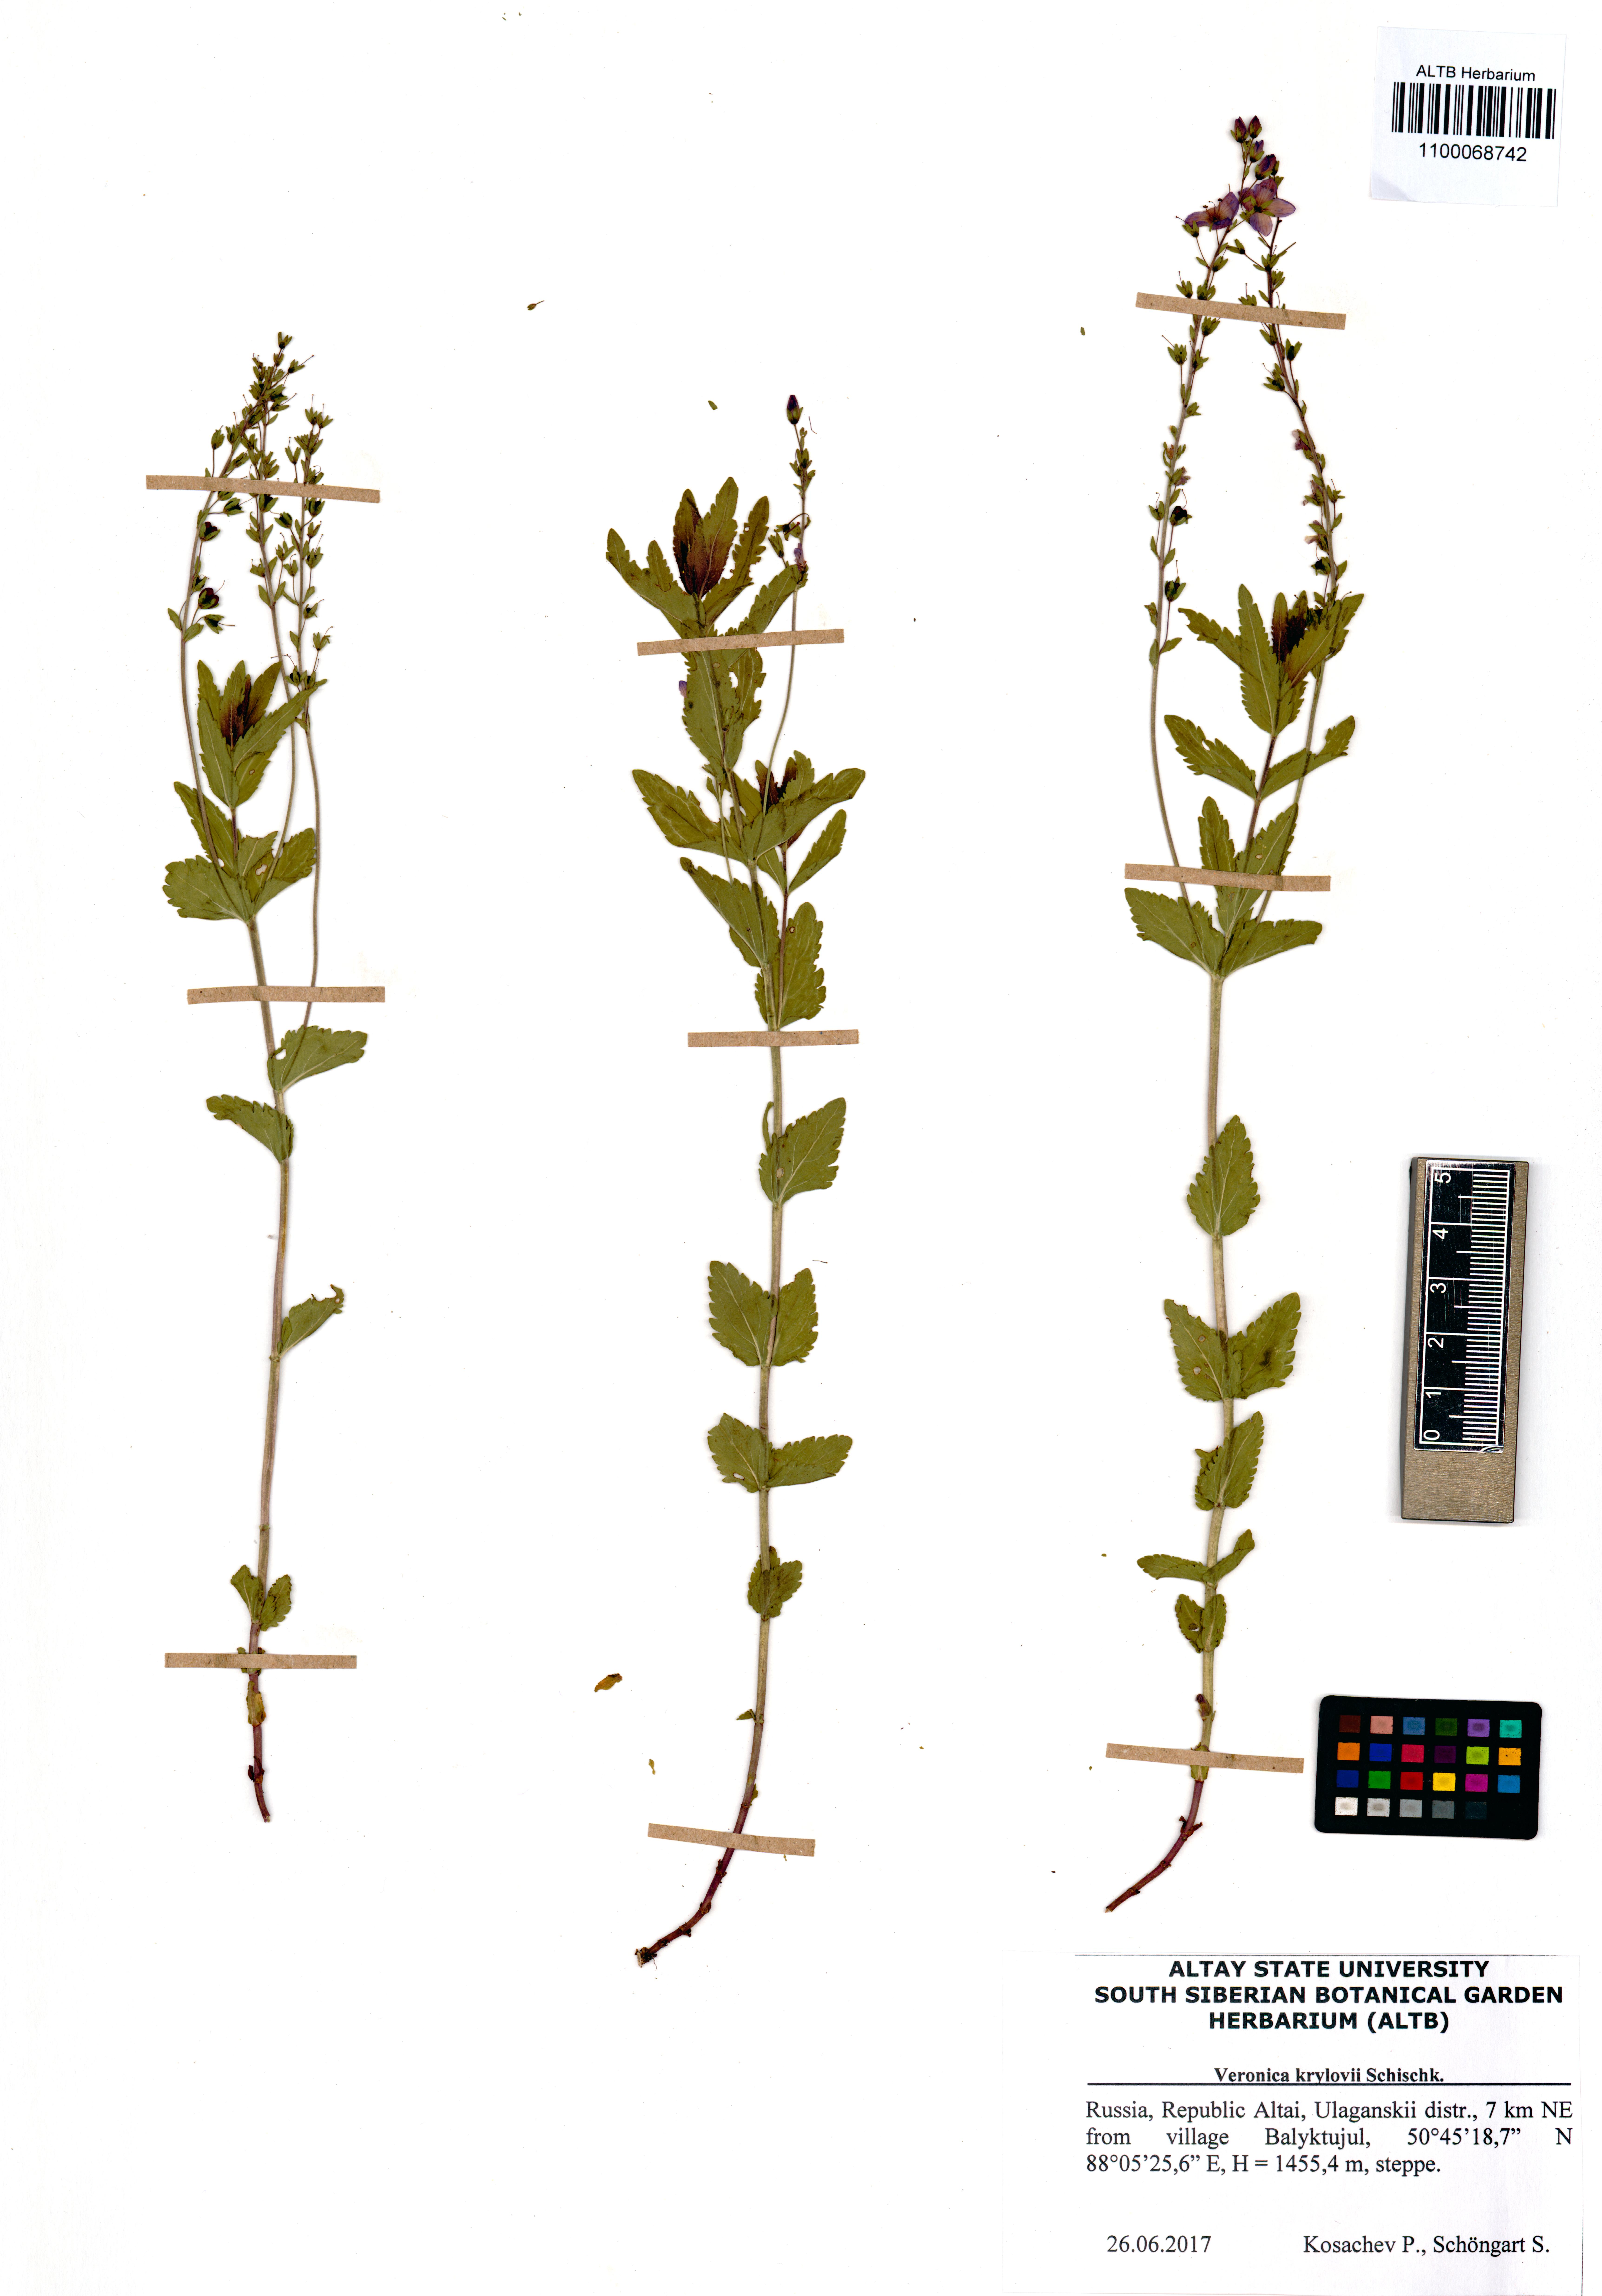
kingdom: Plantae
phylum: Tracheophyta
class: Magnoliopsida
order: Lamiales
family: Plantaginaceae
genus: Veronica
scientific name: Veronica krylovii
